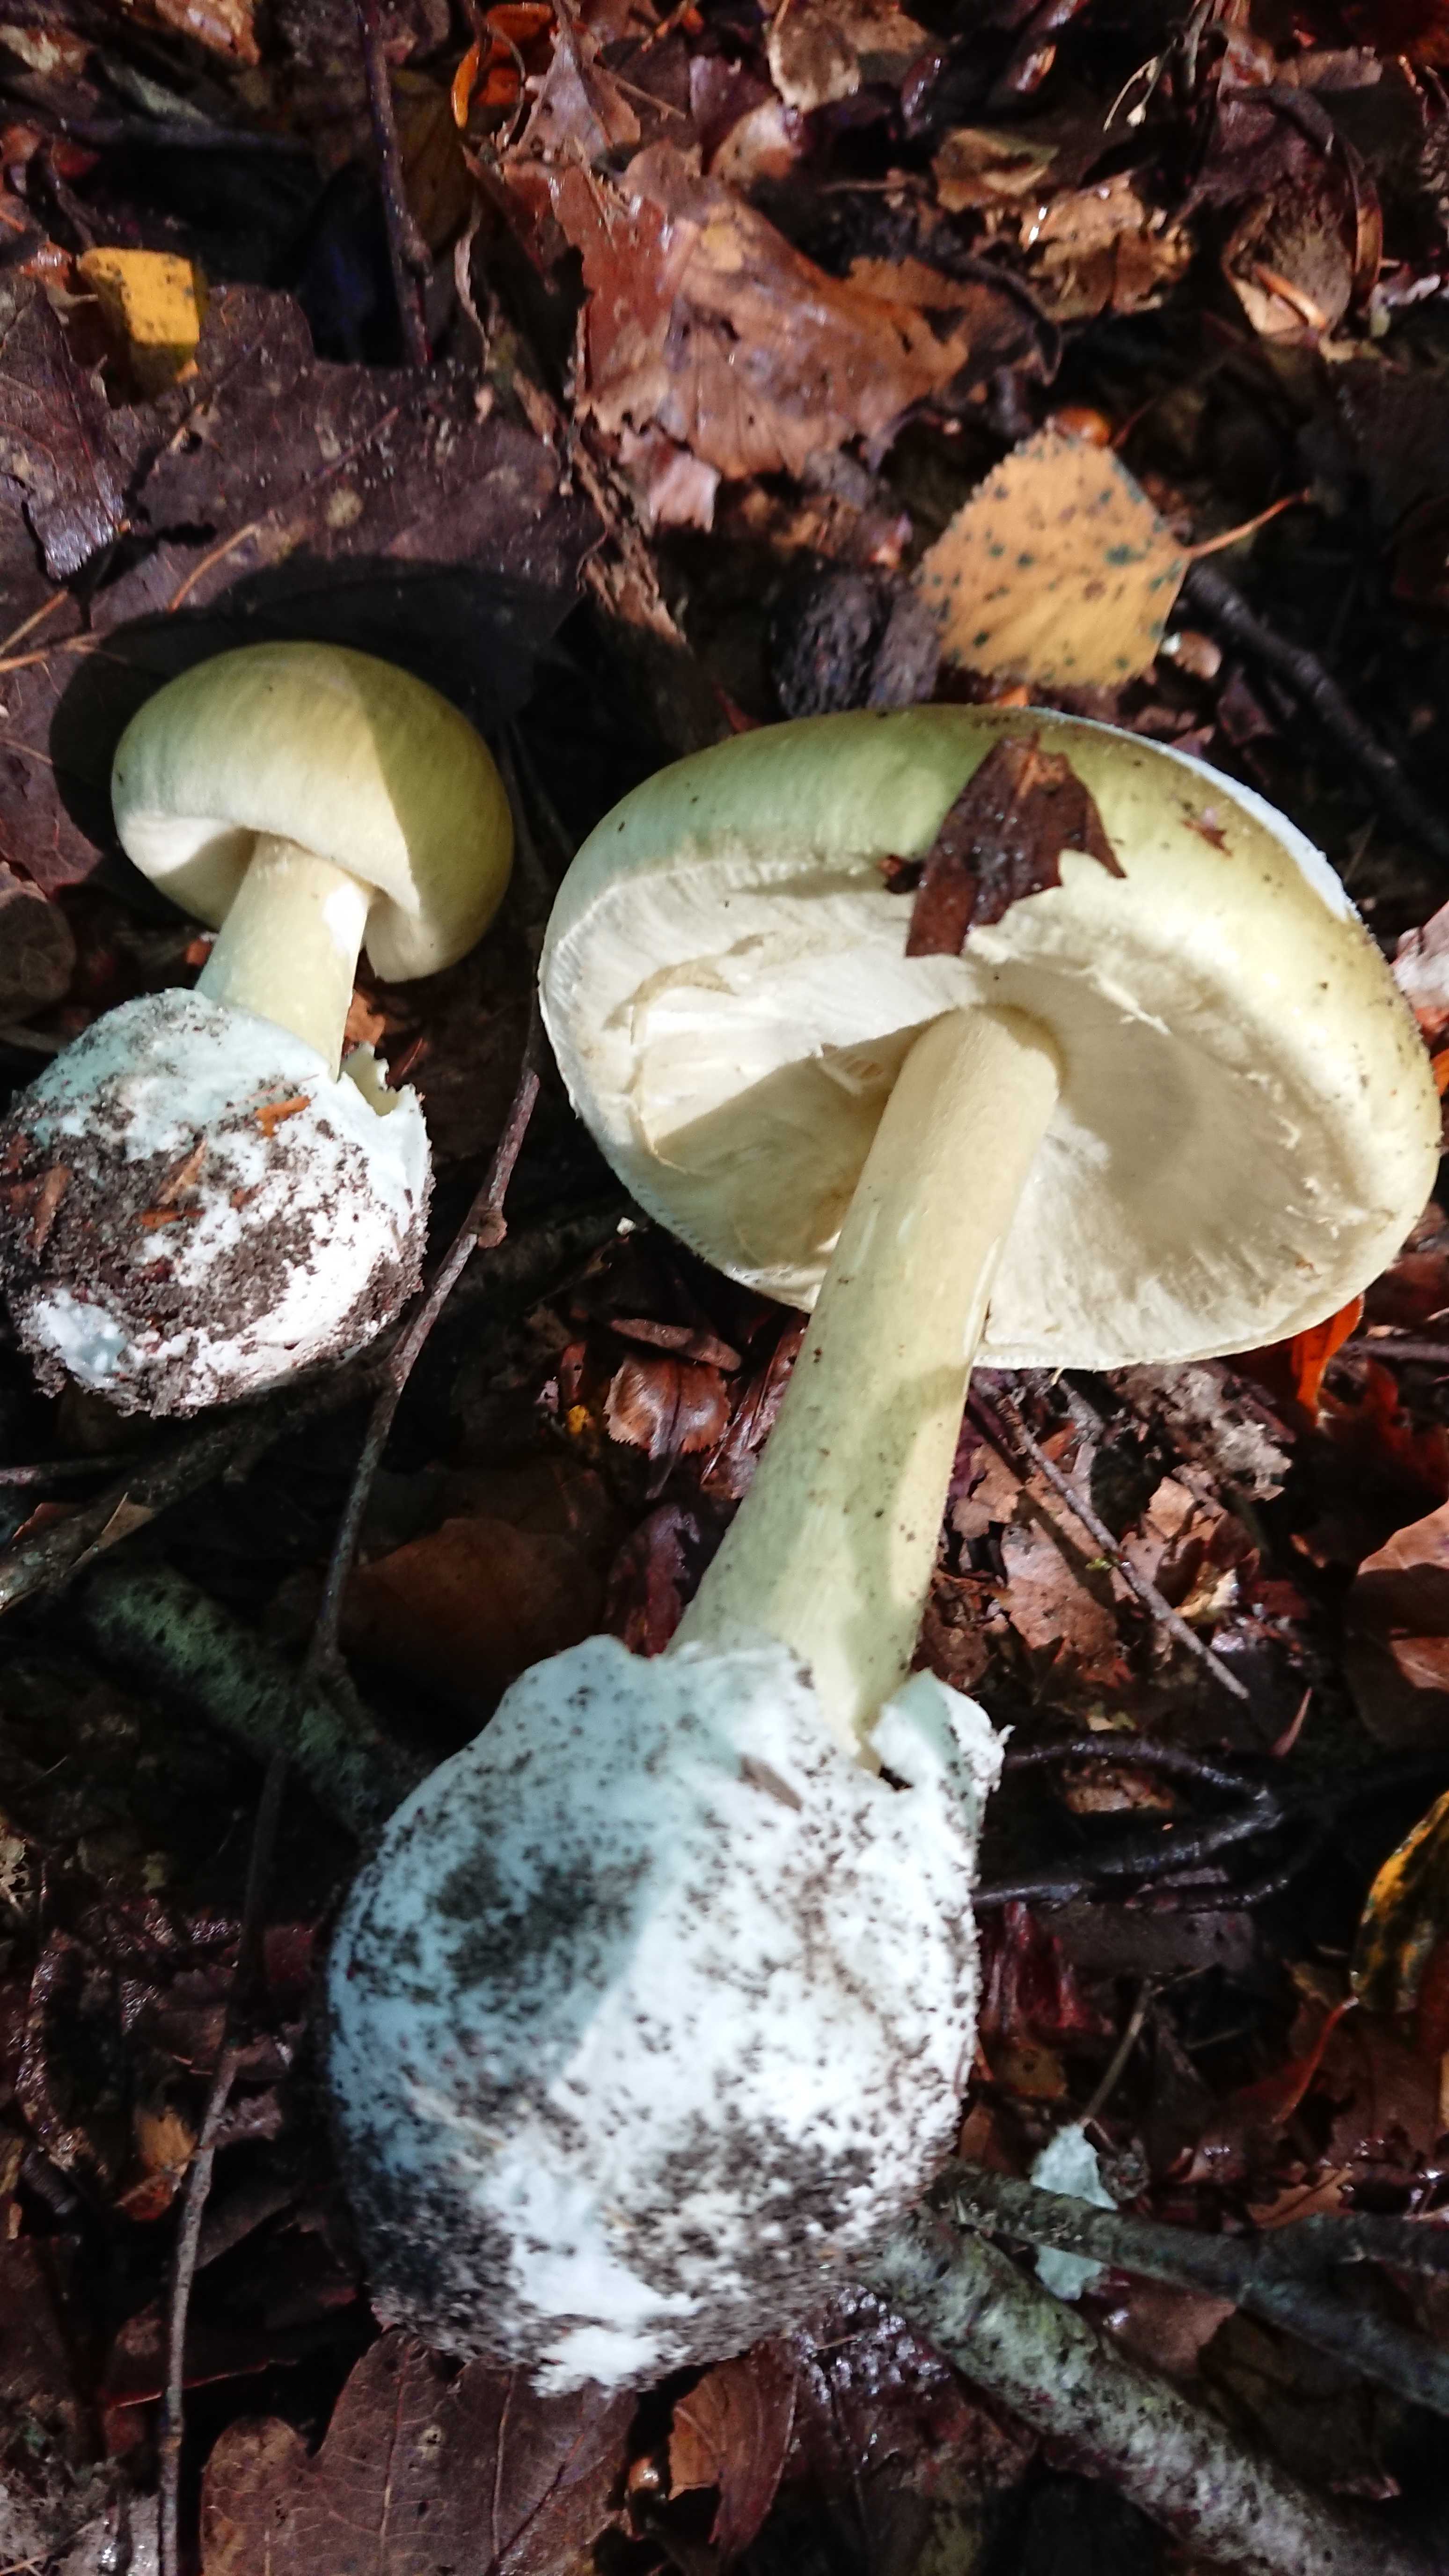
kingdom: Fungi
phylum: Basidiomycota
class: Agaricomycetes
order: Agaricales
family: Amanitaceae
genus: Amanita
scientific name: Amanita phalloides
